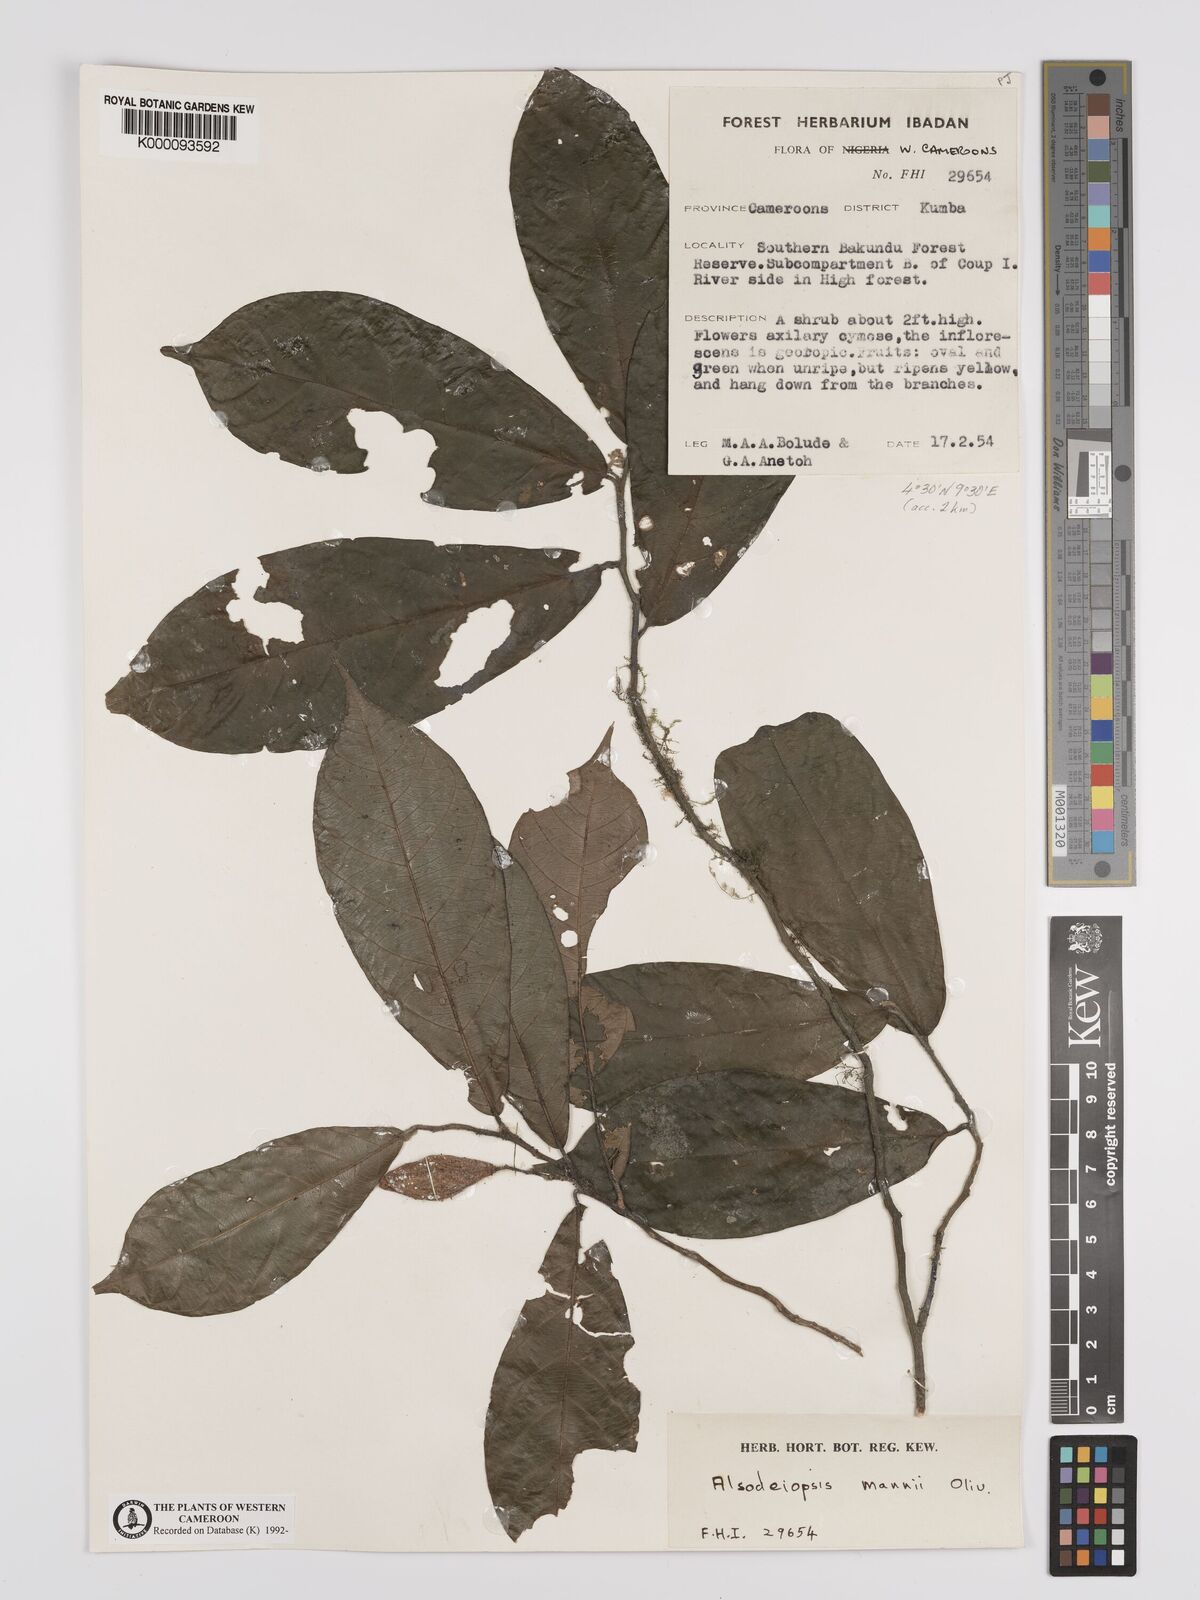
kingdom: Plantae
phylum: Tracheophyta
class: Magnoliopsida
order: Icacinales
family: Icacinaceae
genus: Alsodeiopsis
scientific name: Alsodeiopsis mannii
